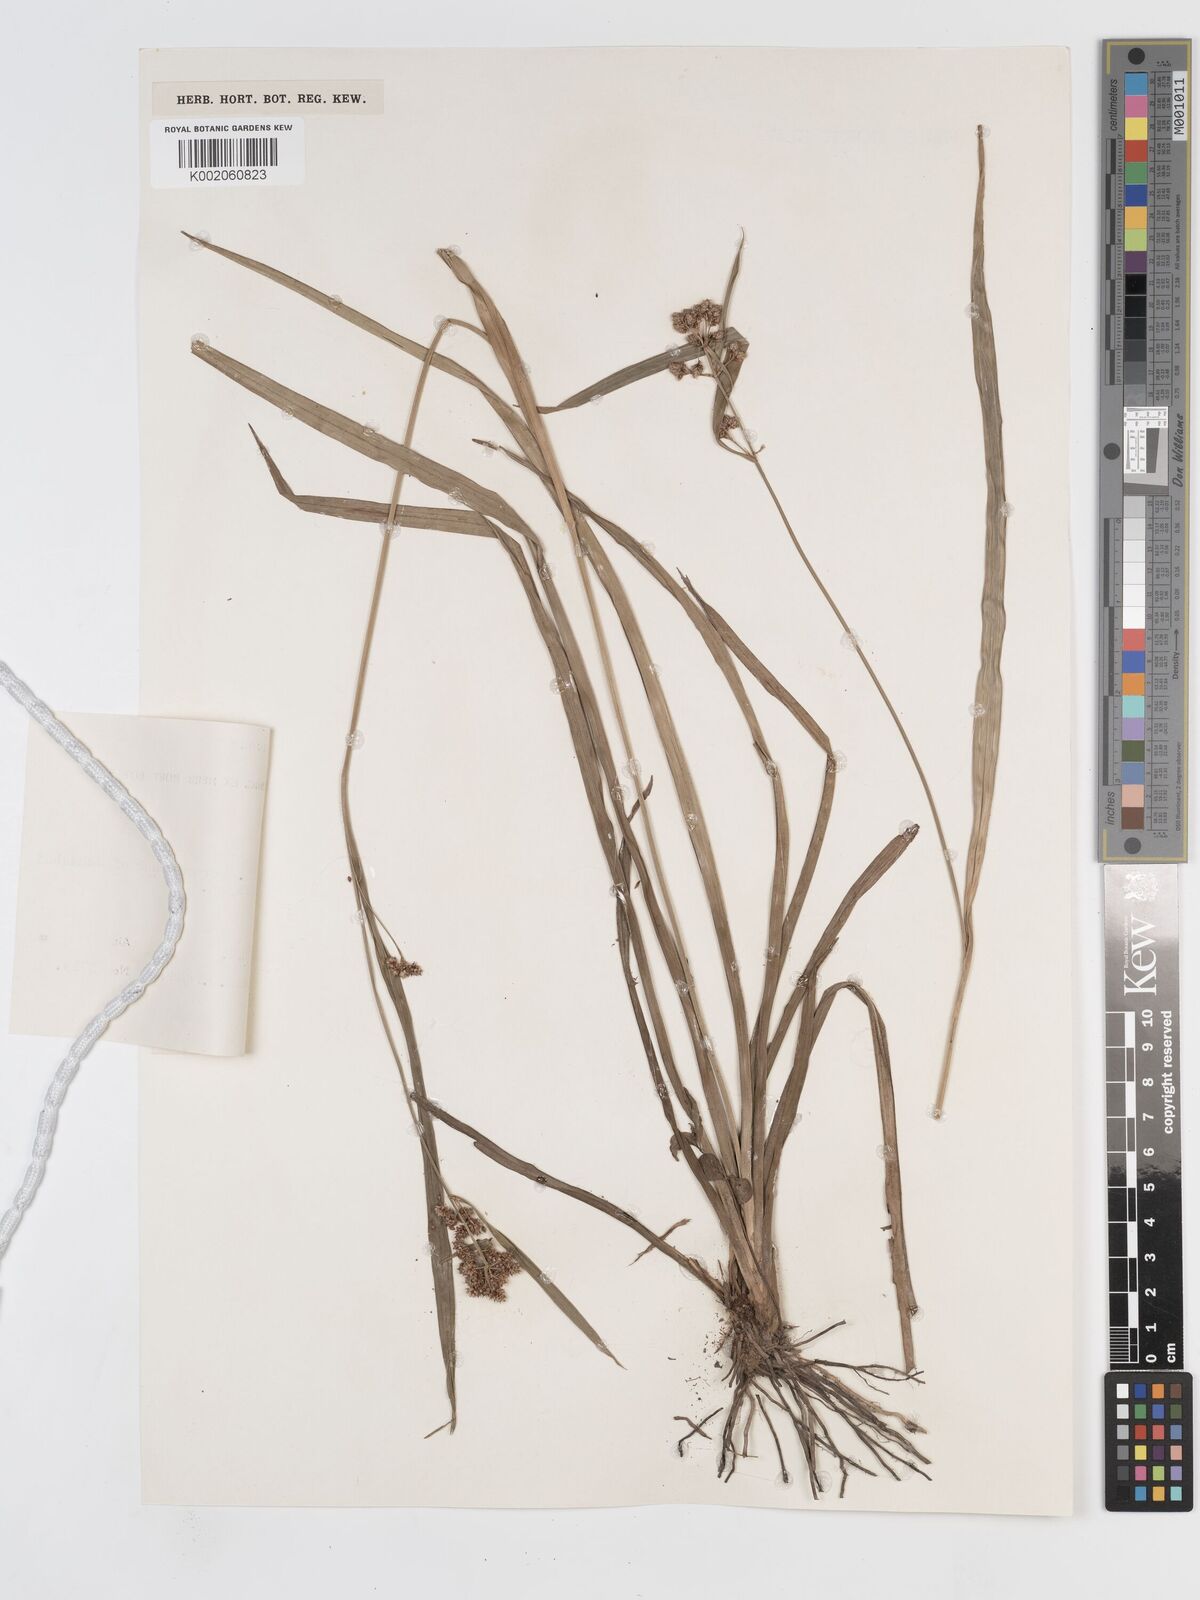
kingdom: Plantae
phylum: Tracheophyta
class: Liliopsida
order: Poales
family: Cyperaceae
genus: Hypolytrum
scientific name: Hypolytrum
